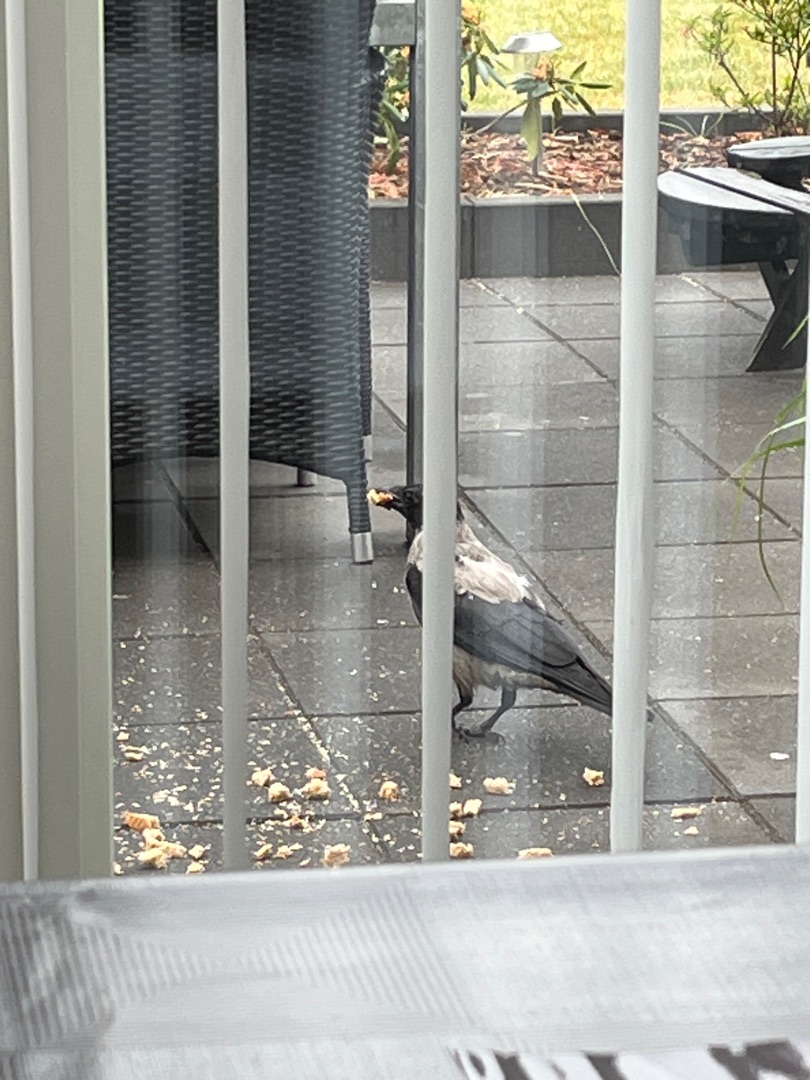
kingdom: Animalia
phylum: Chordata
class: Aves
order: Passeriformes
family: Corvidae
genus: Corvus
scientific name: Corvus cornix
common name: Gråkrage
